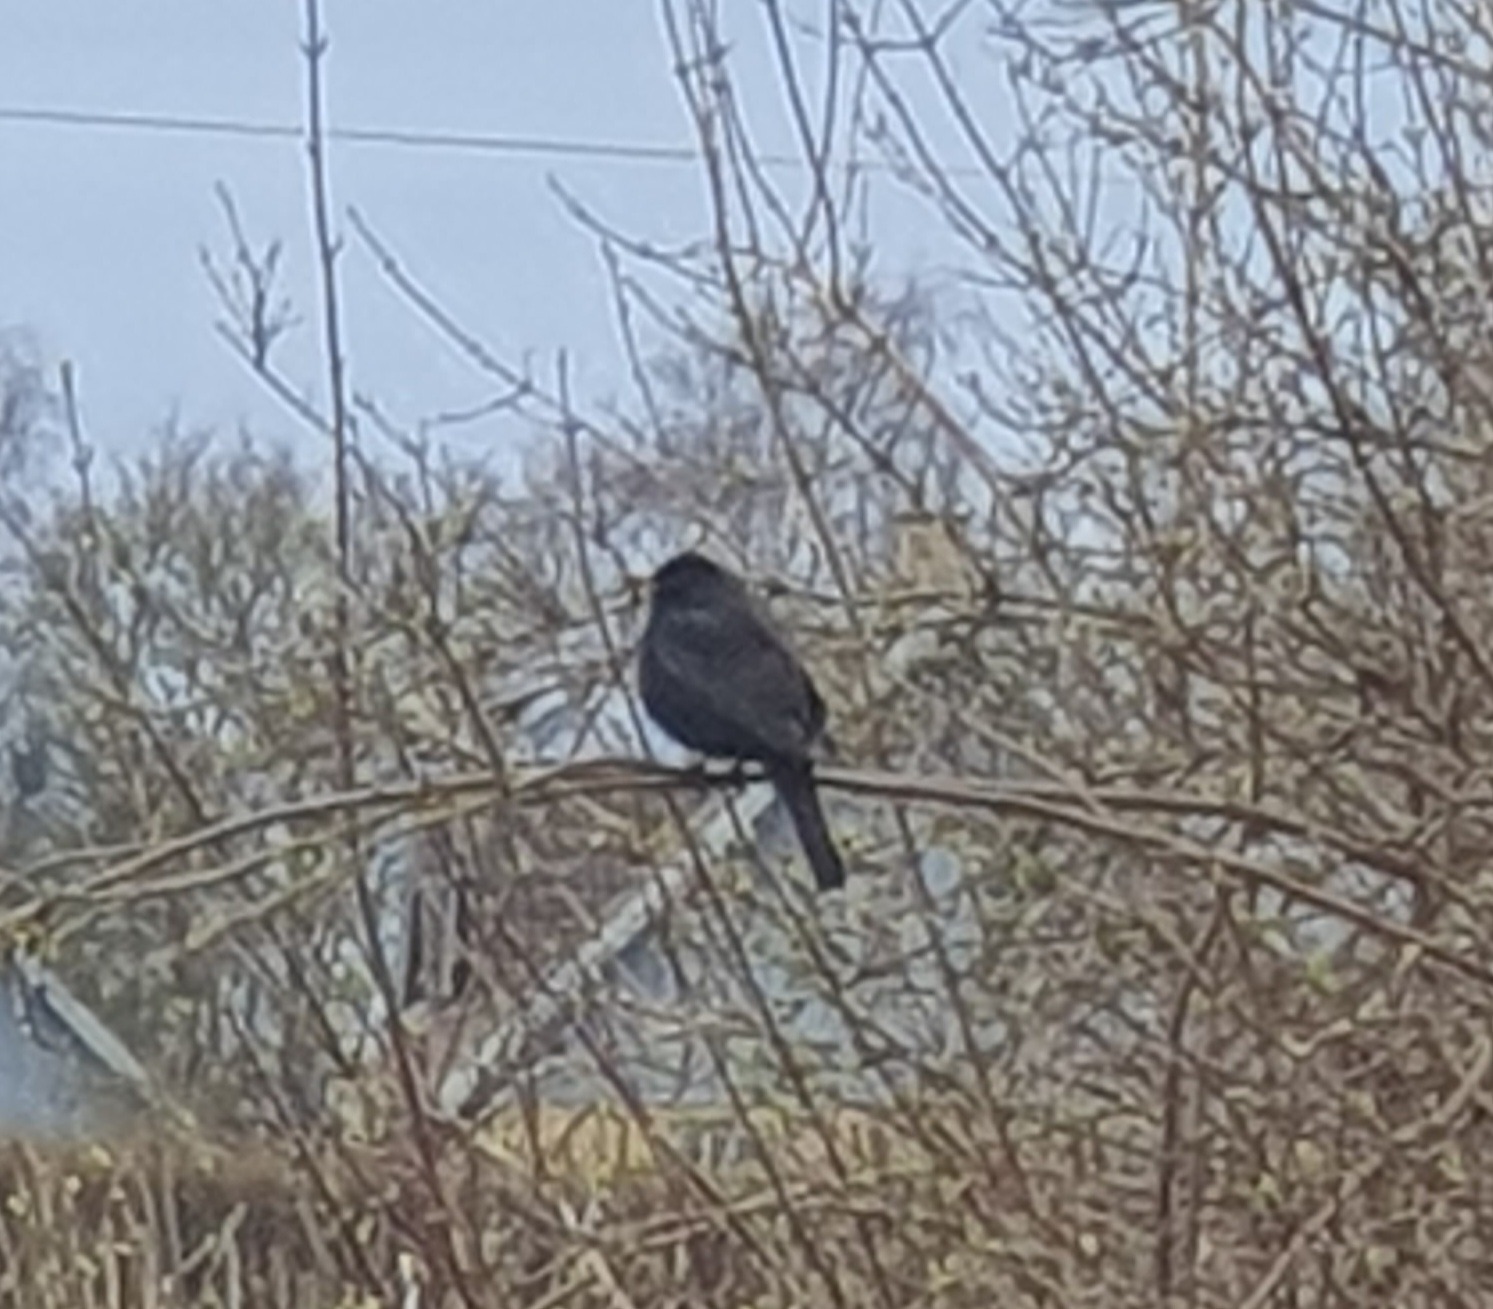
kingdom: Animalia
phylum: Chordata
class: Aves
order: Passeriformes
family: Turdidae
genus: Turdus
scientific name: Turdus merula
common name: Solsort
